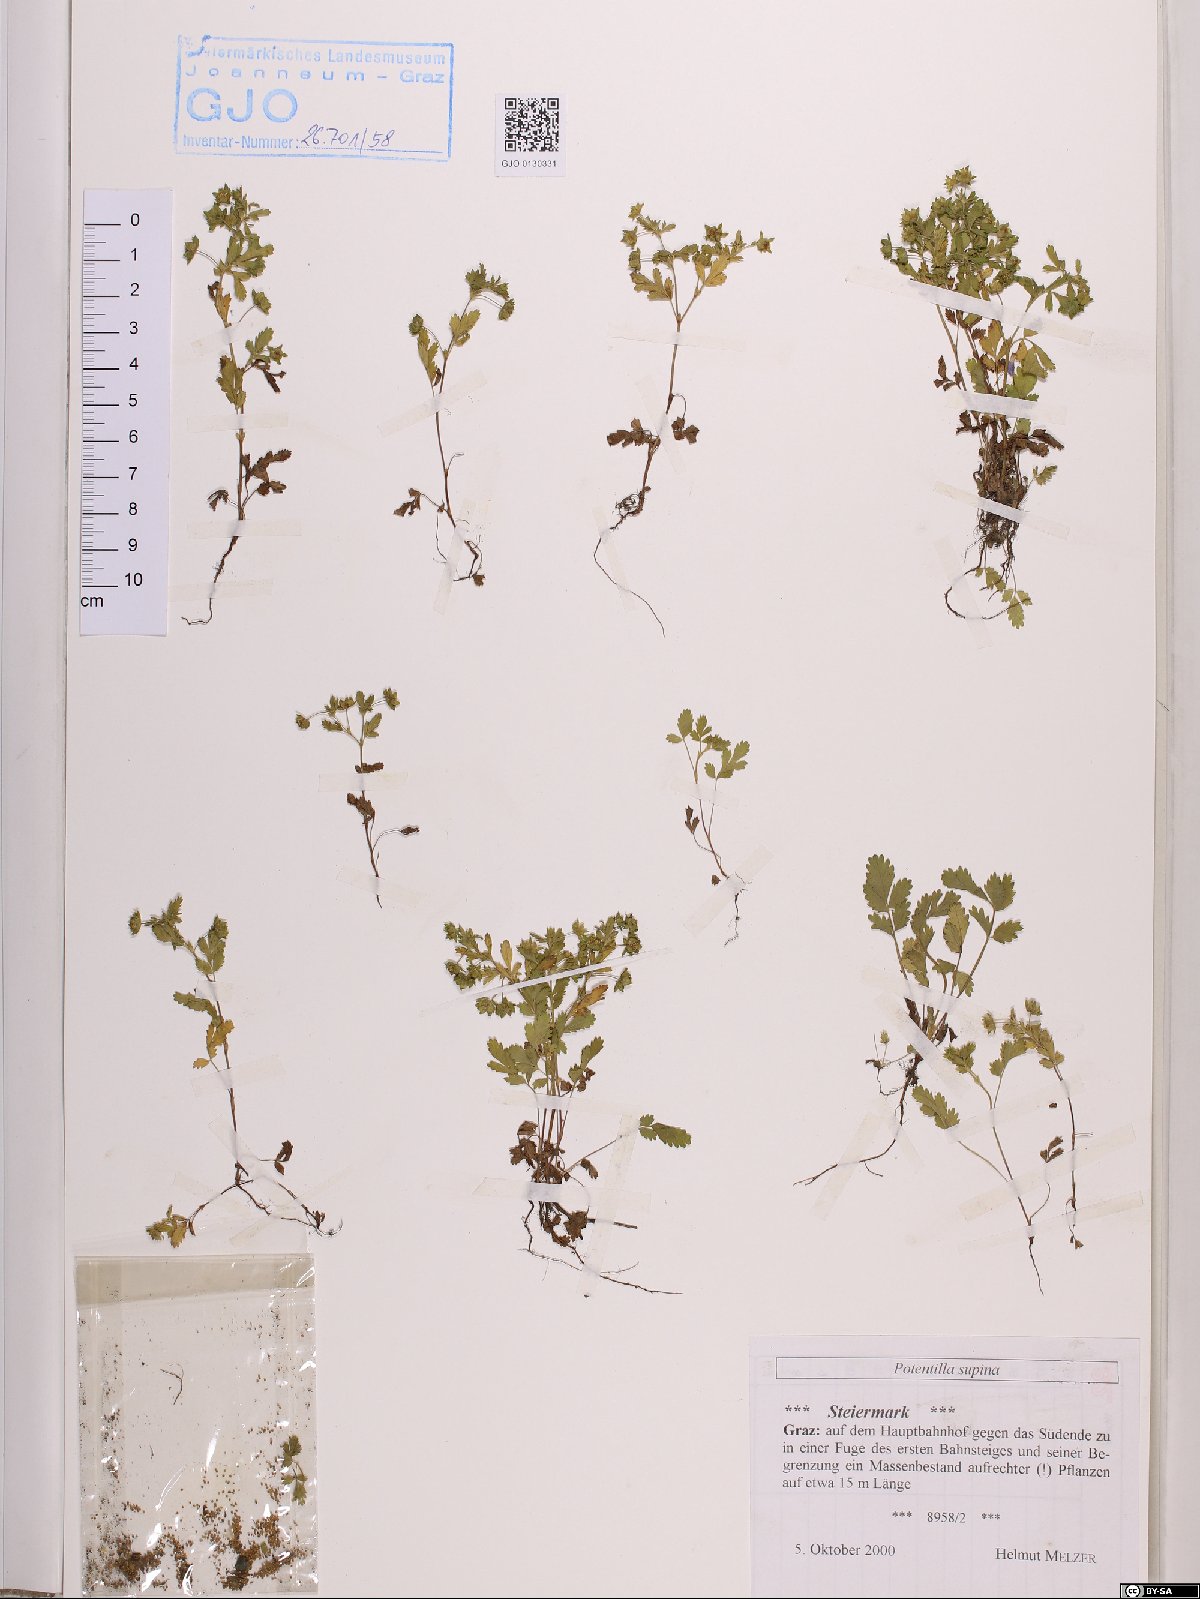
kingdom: Plantae
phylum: Tracheophyta
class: Magnoliopsida
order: Rosales
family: Rosaceae
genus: Potentilla
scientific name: Potentilla supina
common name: Prostrate cinquefoil
